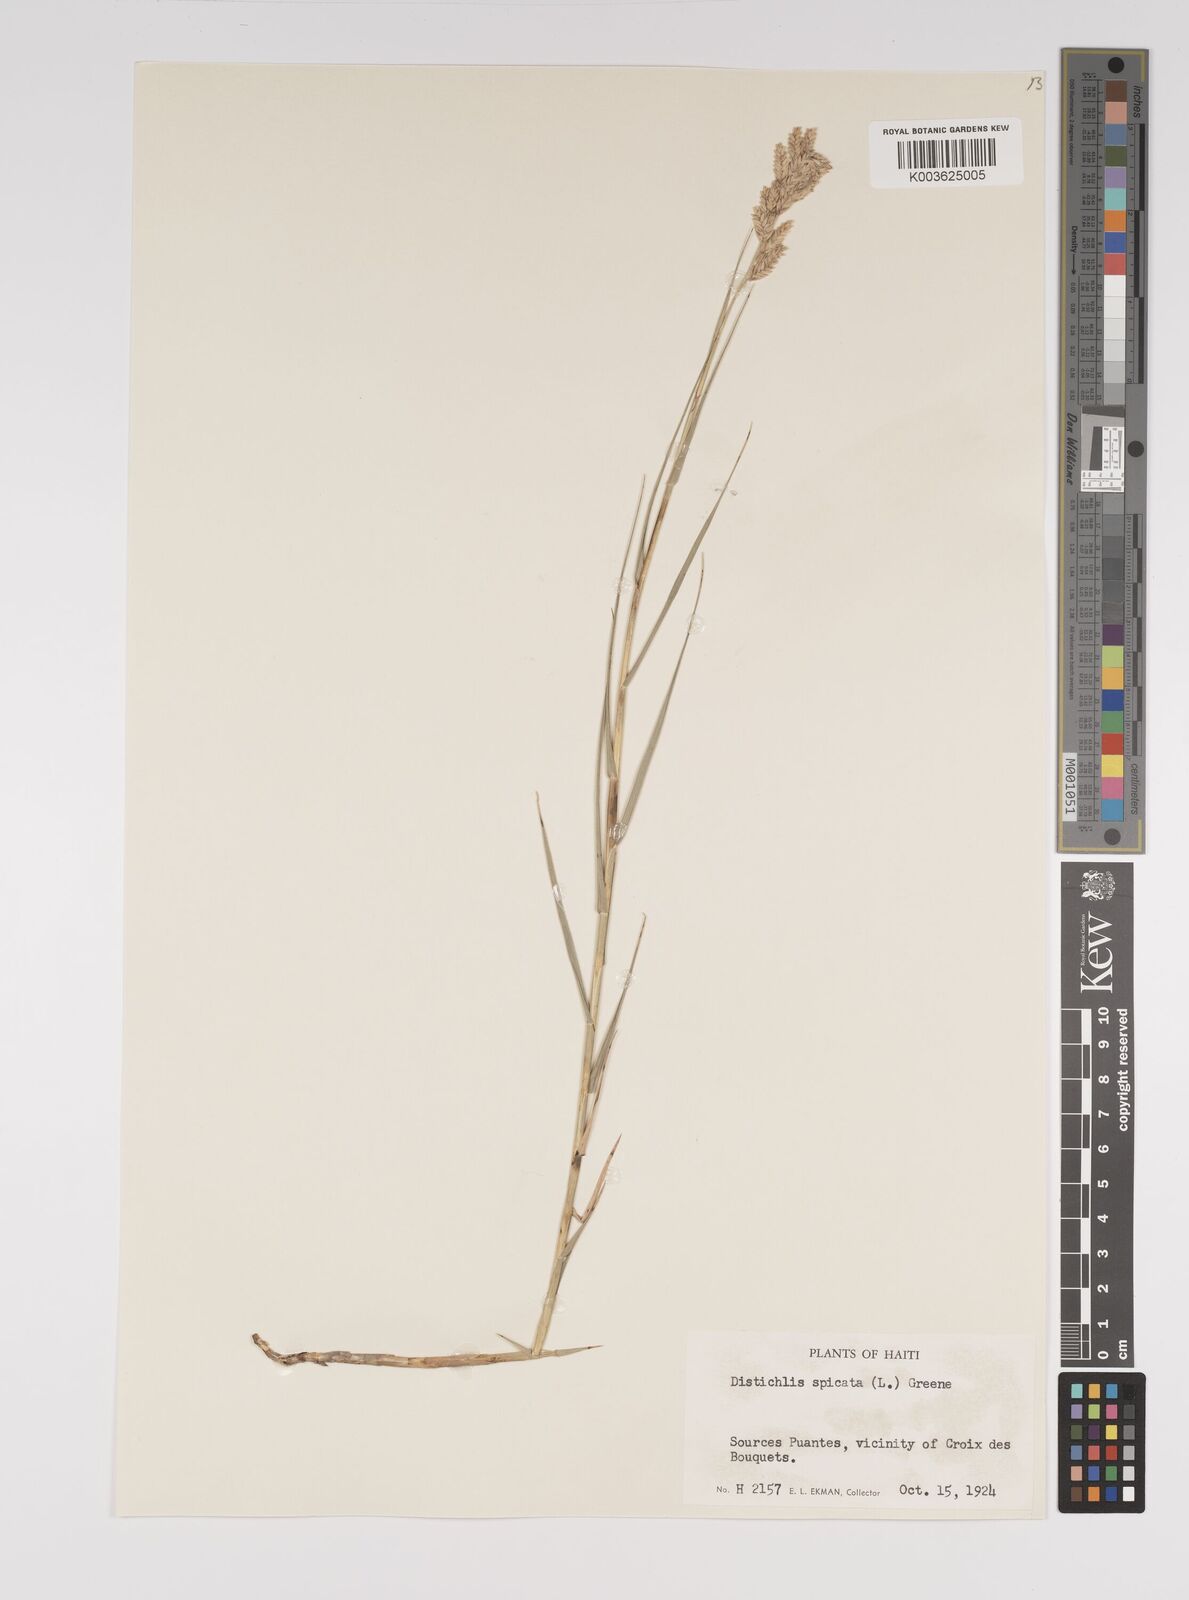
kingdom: Plantae
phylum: Tracheophyta
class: Liliopsida
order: Poales
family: Poaceae
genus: Distichlis
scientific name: Distichlis spicata
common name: Saltgrass
